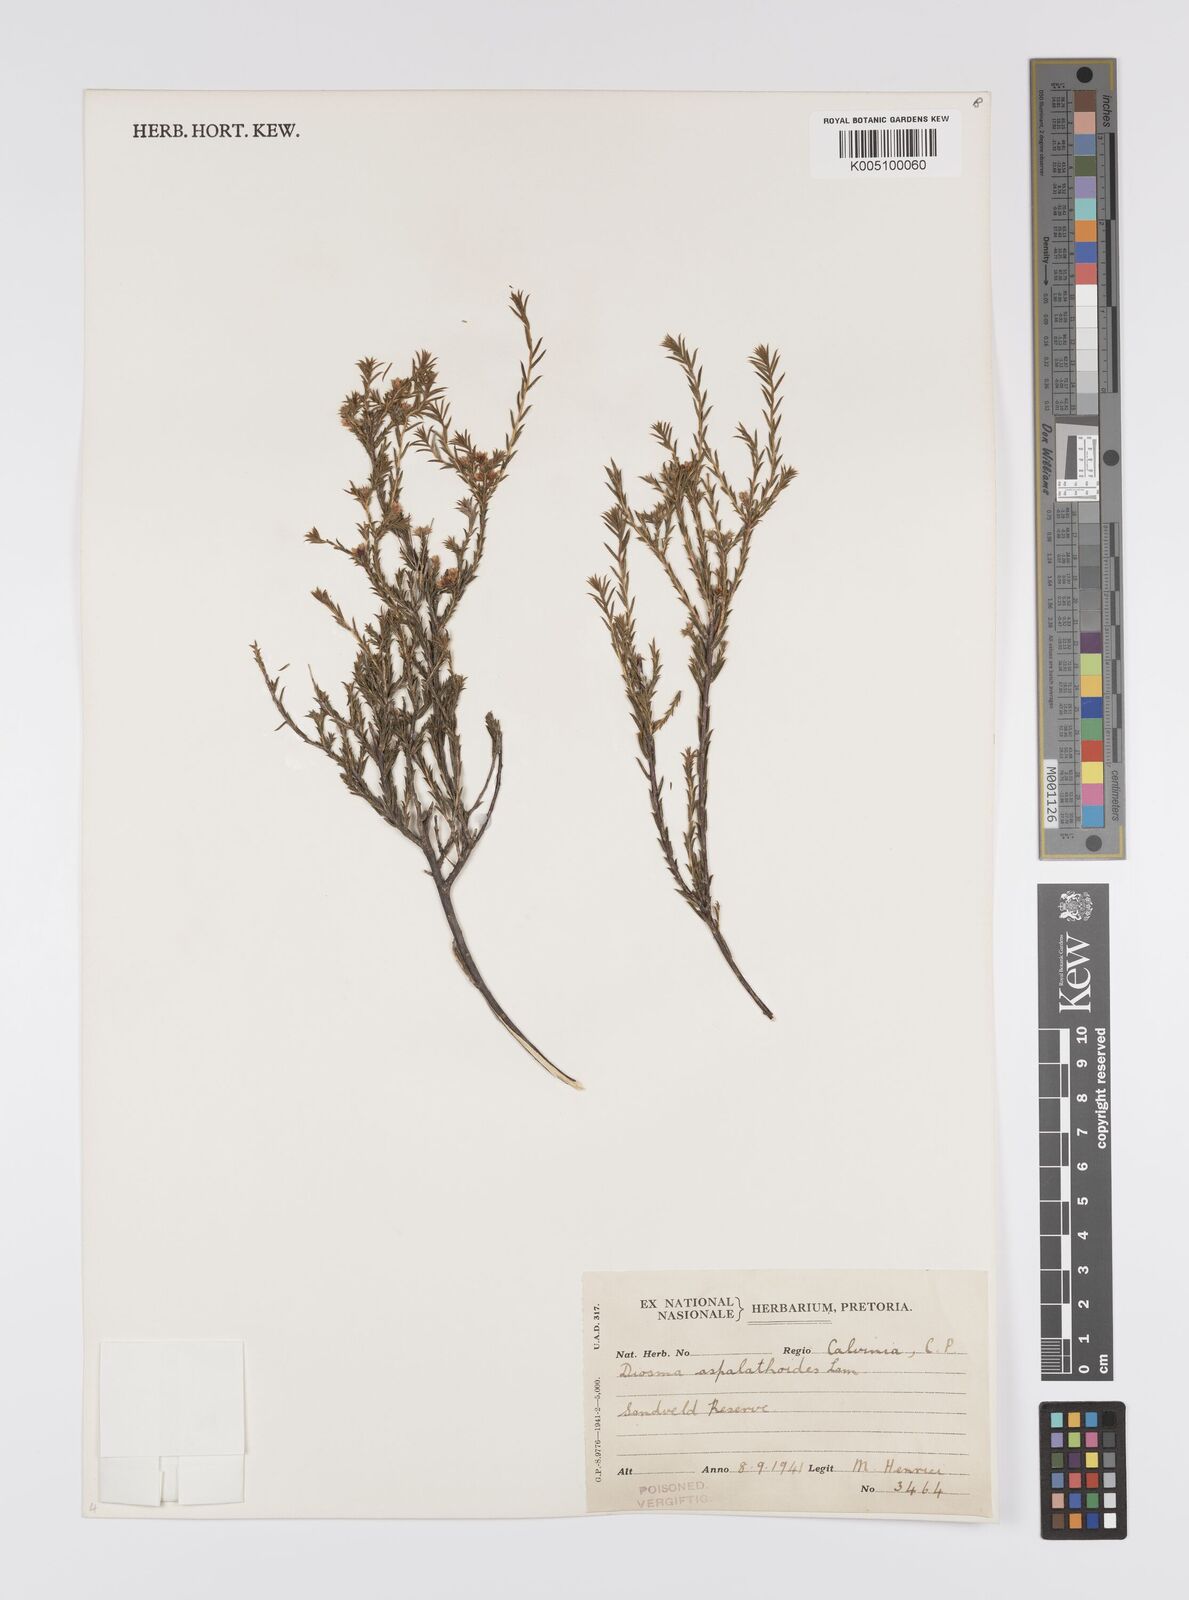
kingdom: Plantae
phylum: Tracheophyta
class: Magnoliopsida
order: Sapindales
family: Rutaceae
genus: Diosma
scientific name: Diosma aspalathoides
